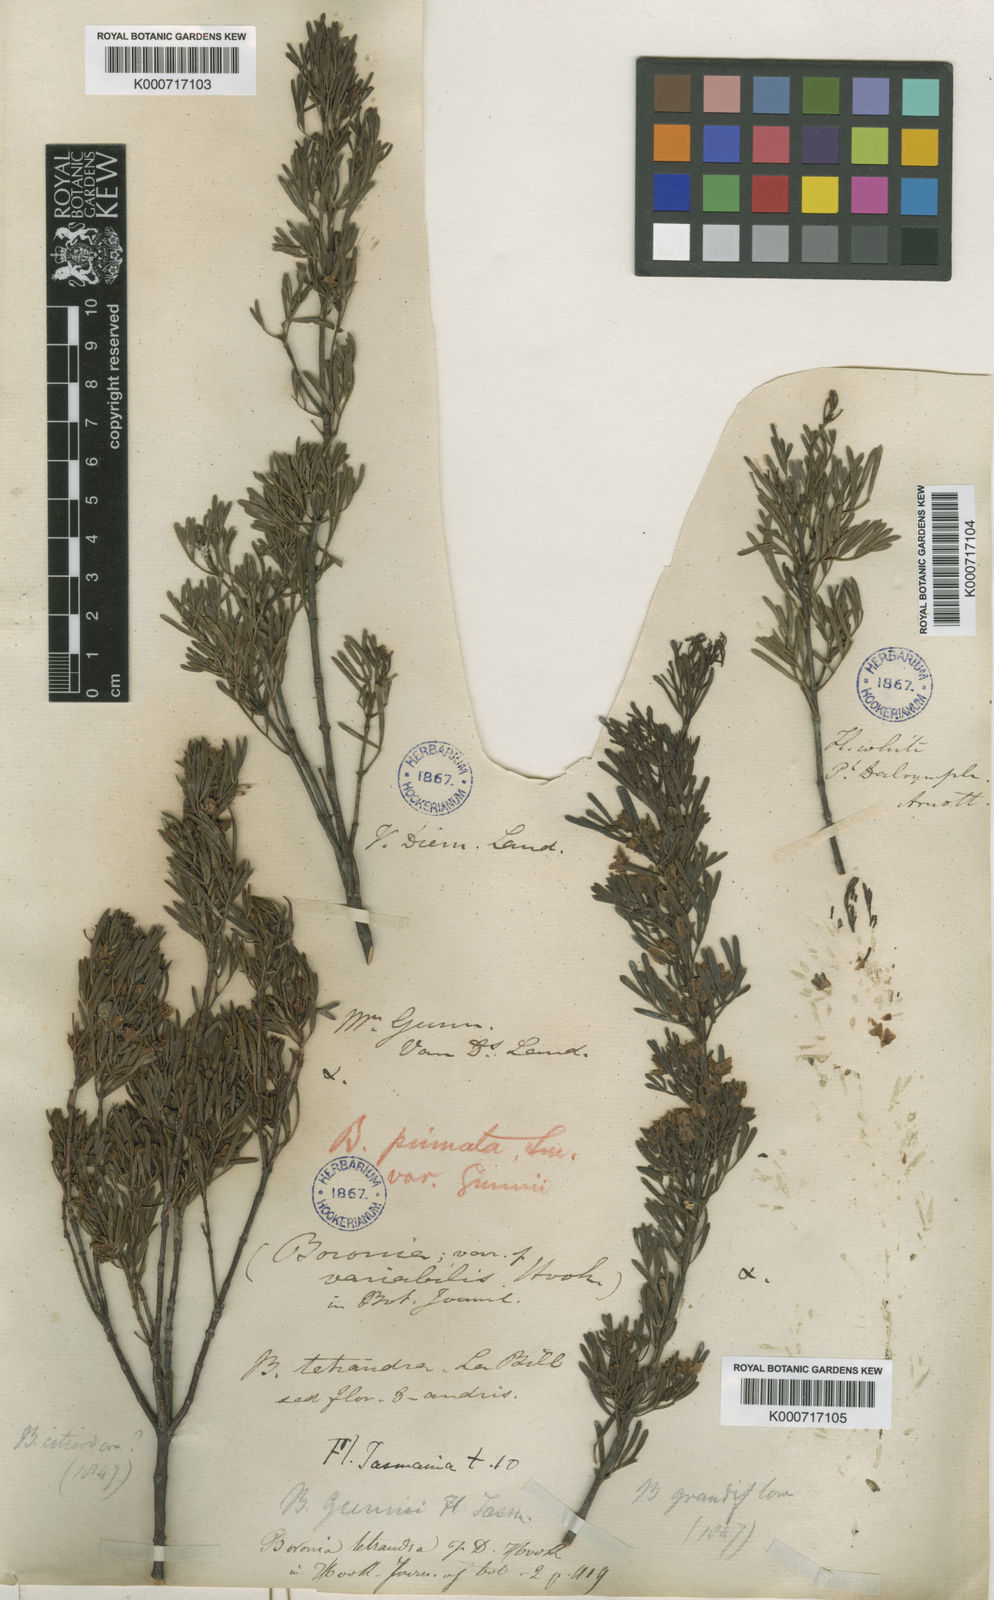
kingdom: Plantae
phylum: Tracheophyta
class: Magnoliopsida
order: Sapindales
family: Rutaceae
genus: Boronia
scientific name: Boronia gunnii
